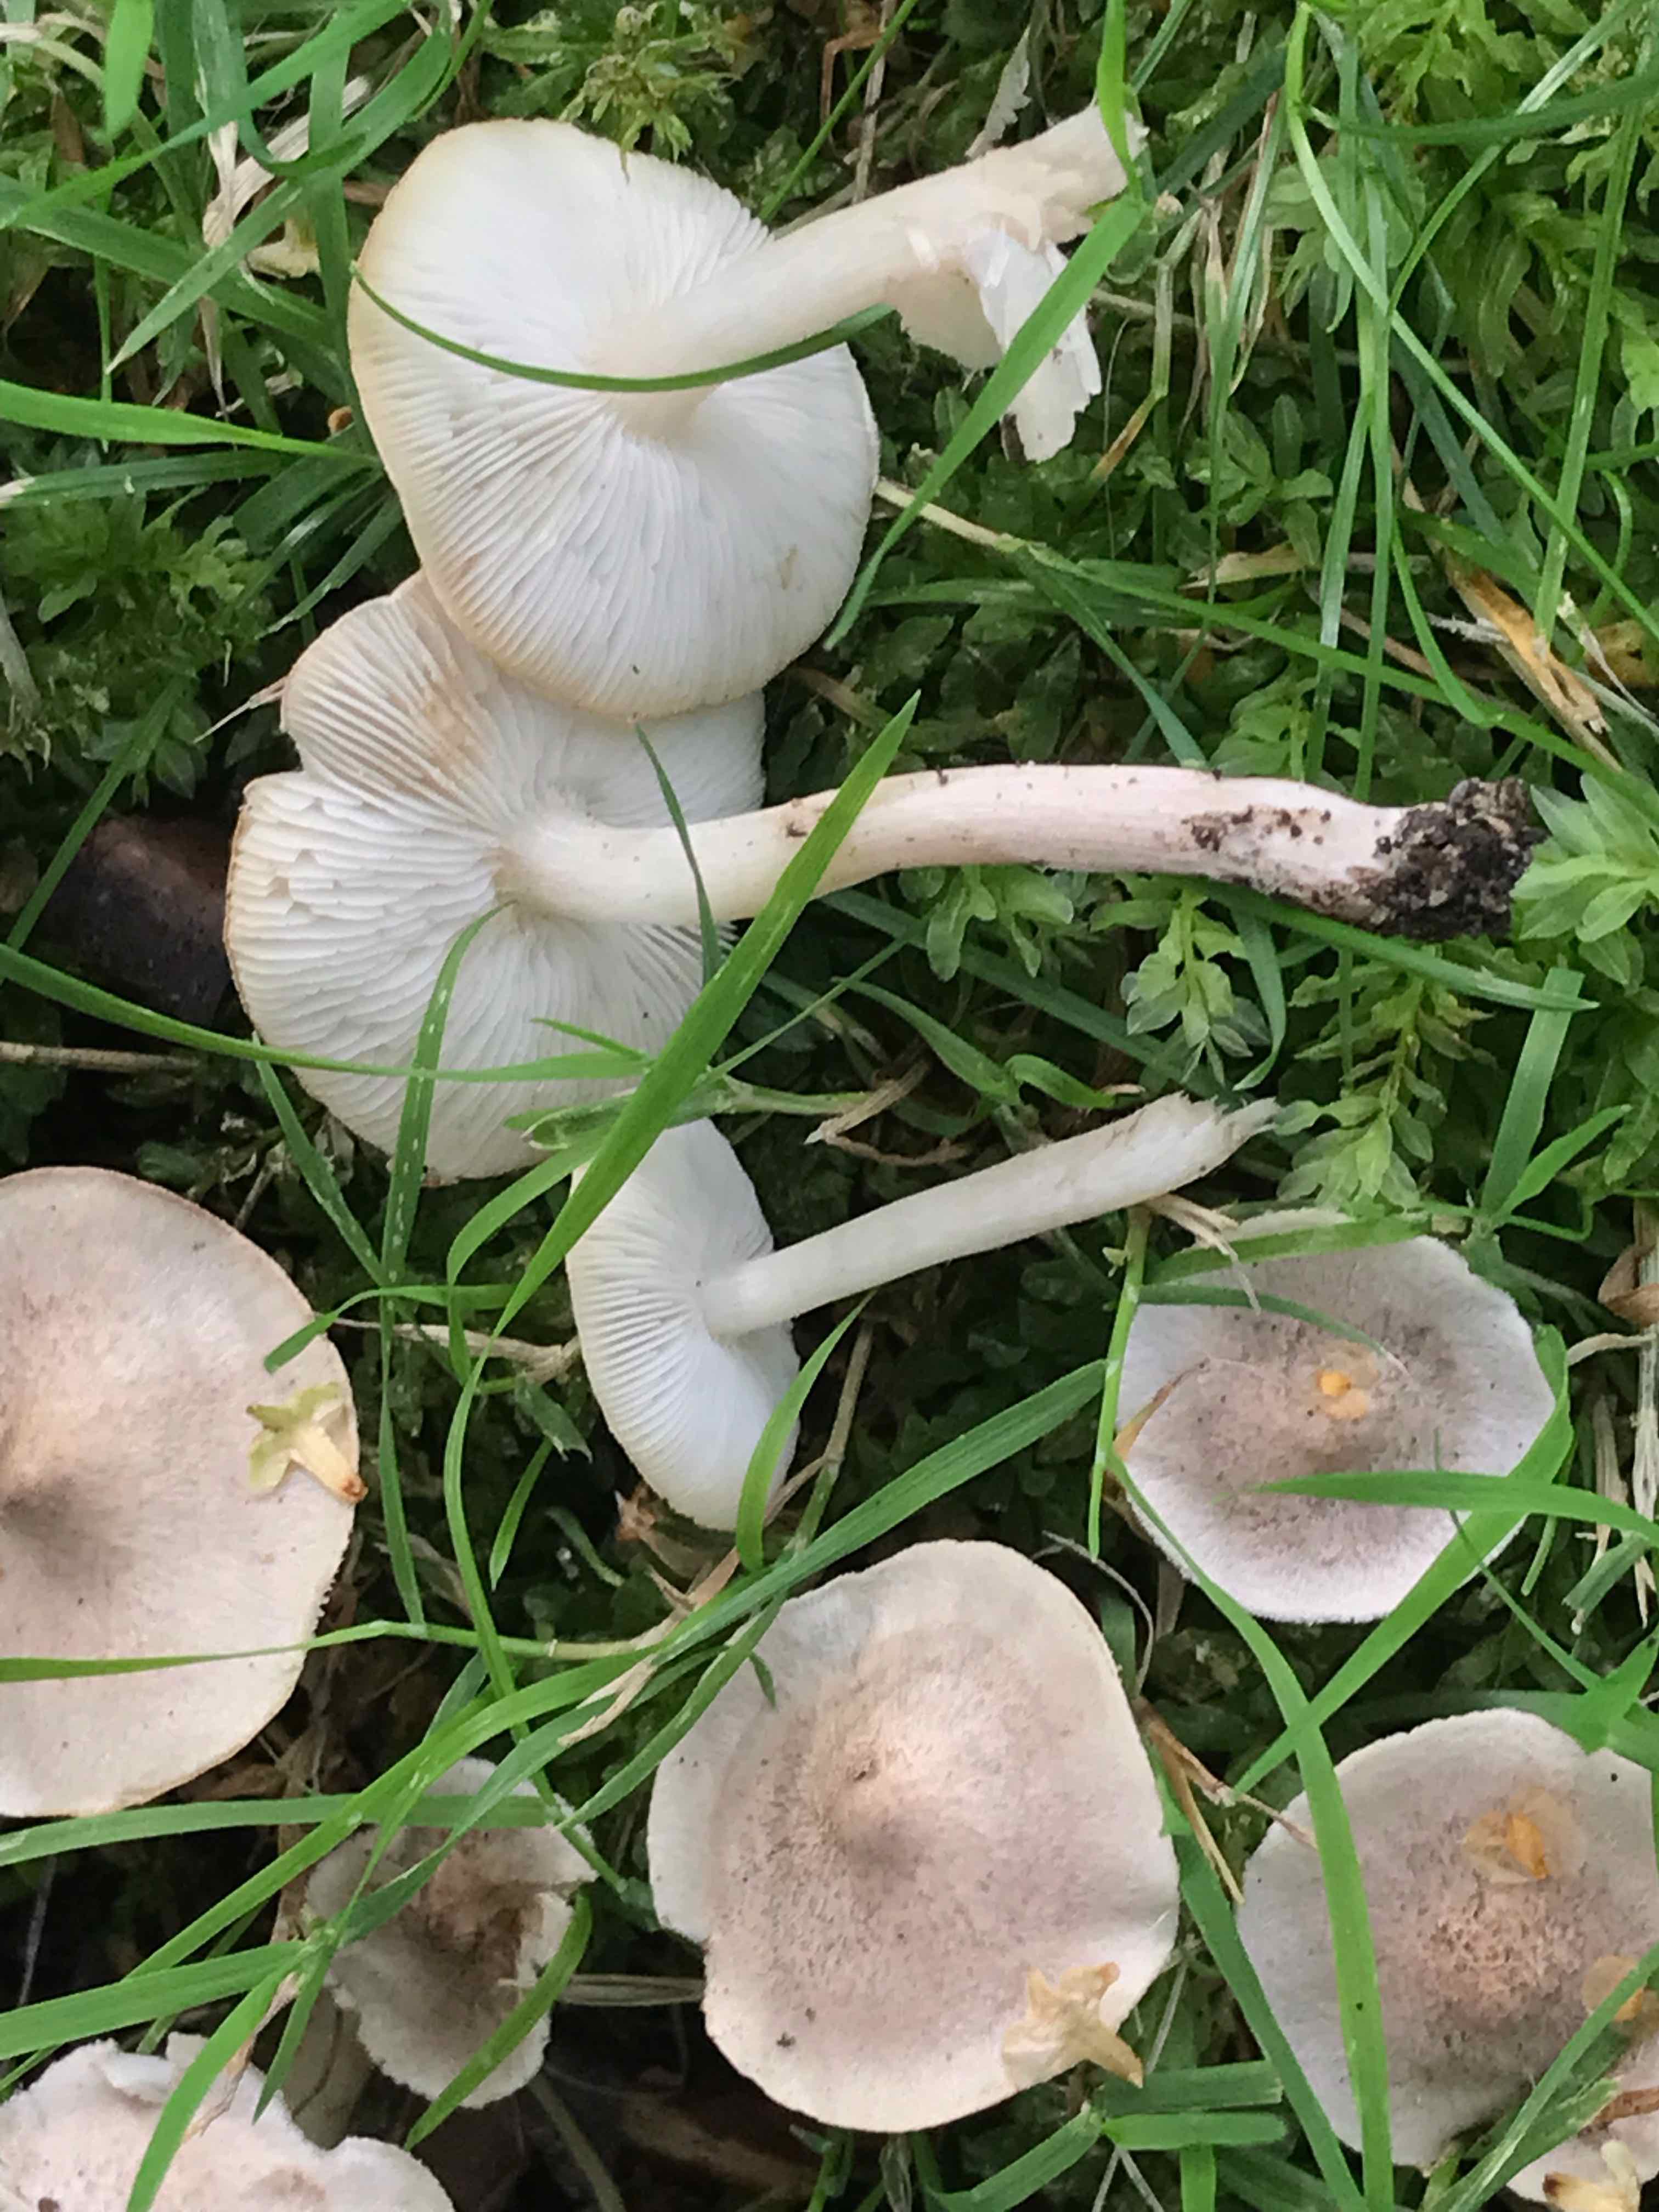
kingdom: Fungi
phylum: Basidiomycota
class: Agaricomycetes
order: Agaricales
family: Tricholomataceae
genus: Tricholoma
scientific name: Tricholoma argyraceum
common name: spids ridderhat
